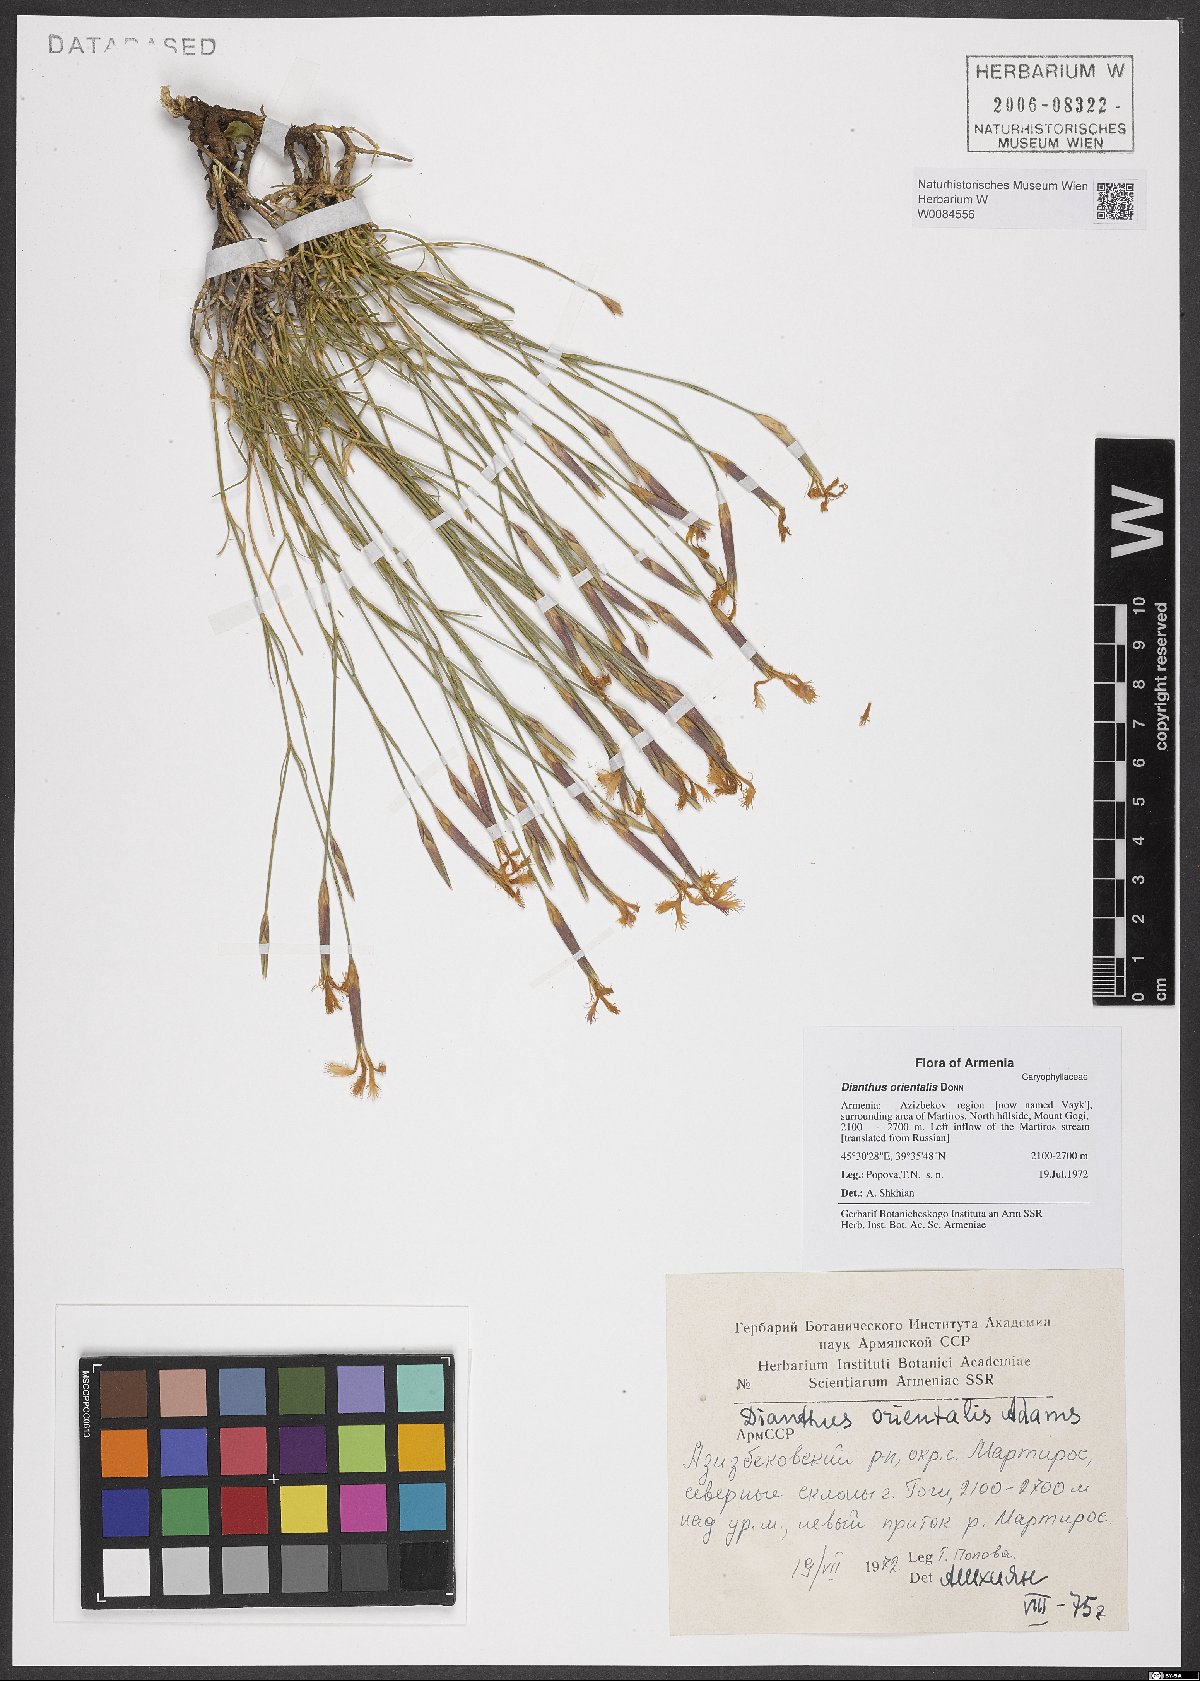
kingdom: Plantae
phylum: Tracheophyta
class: Magnoliopsida
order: Caryophyllales
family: Caryophyllaceae
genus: Dianthus
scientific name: Dianthus orientalis
